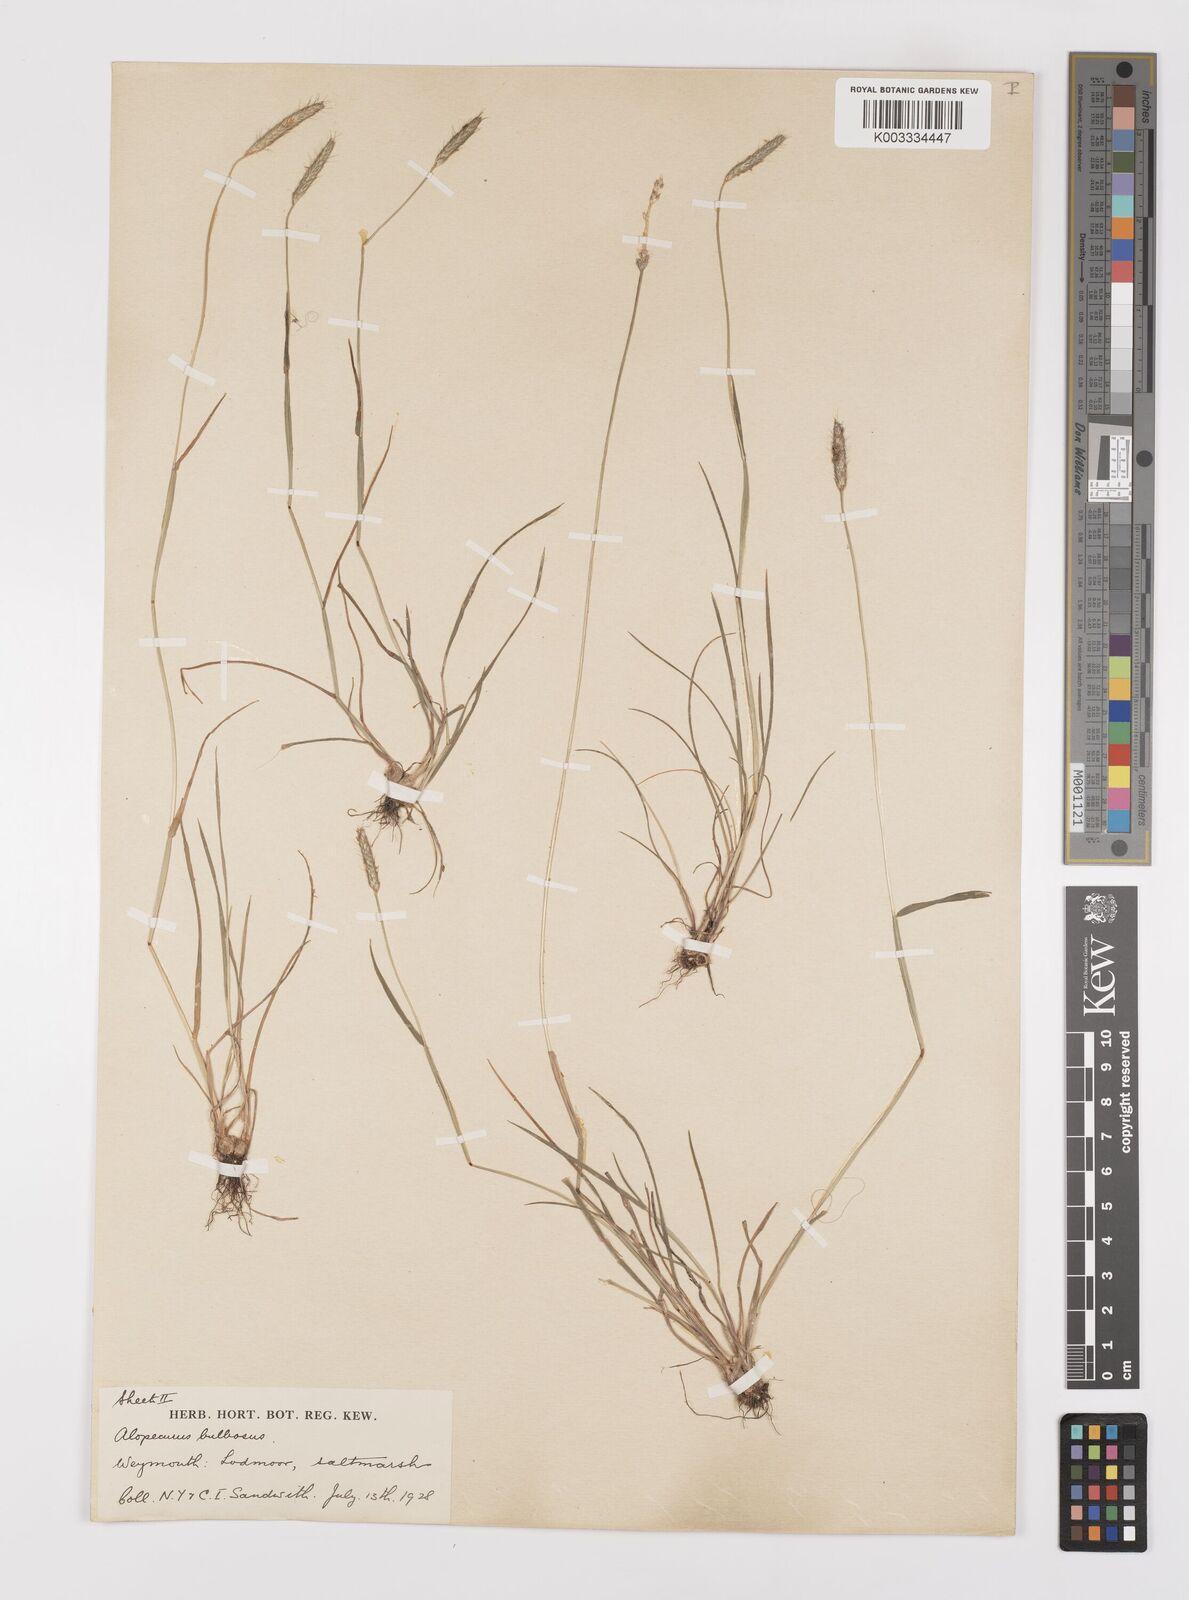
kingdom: Plantae
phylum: Tracheophyta
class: Liliopsida
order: Poales
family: Poaceae
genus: Alopecurus
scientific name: Alopecurus bulbosus
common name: Bulbous foxtail
